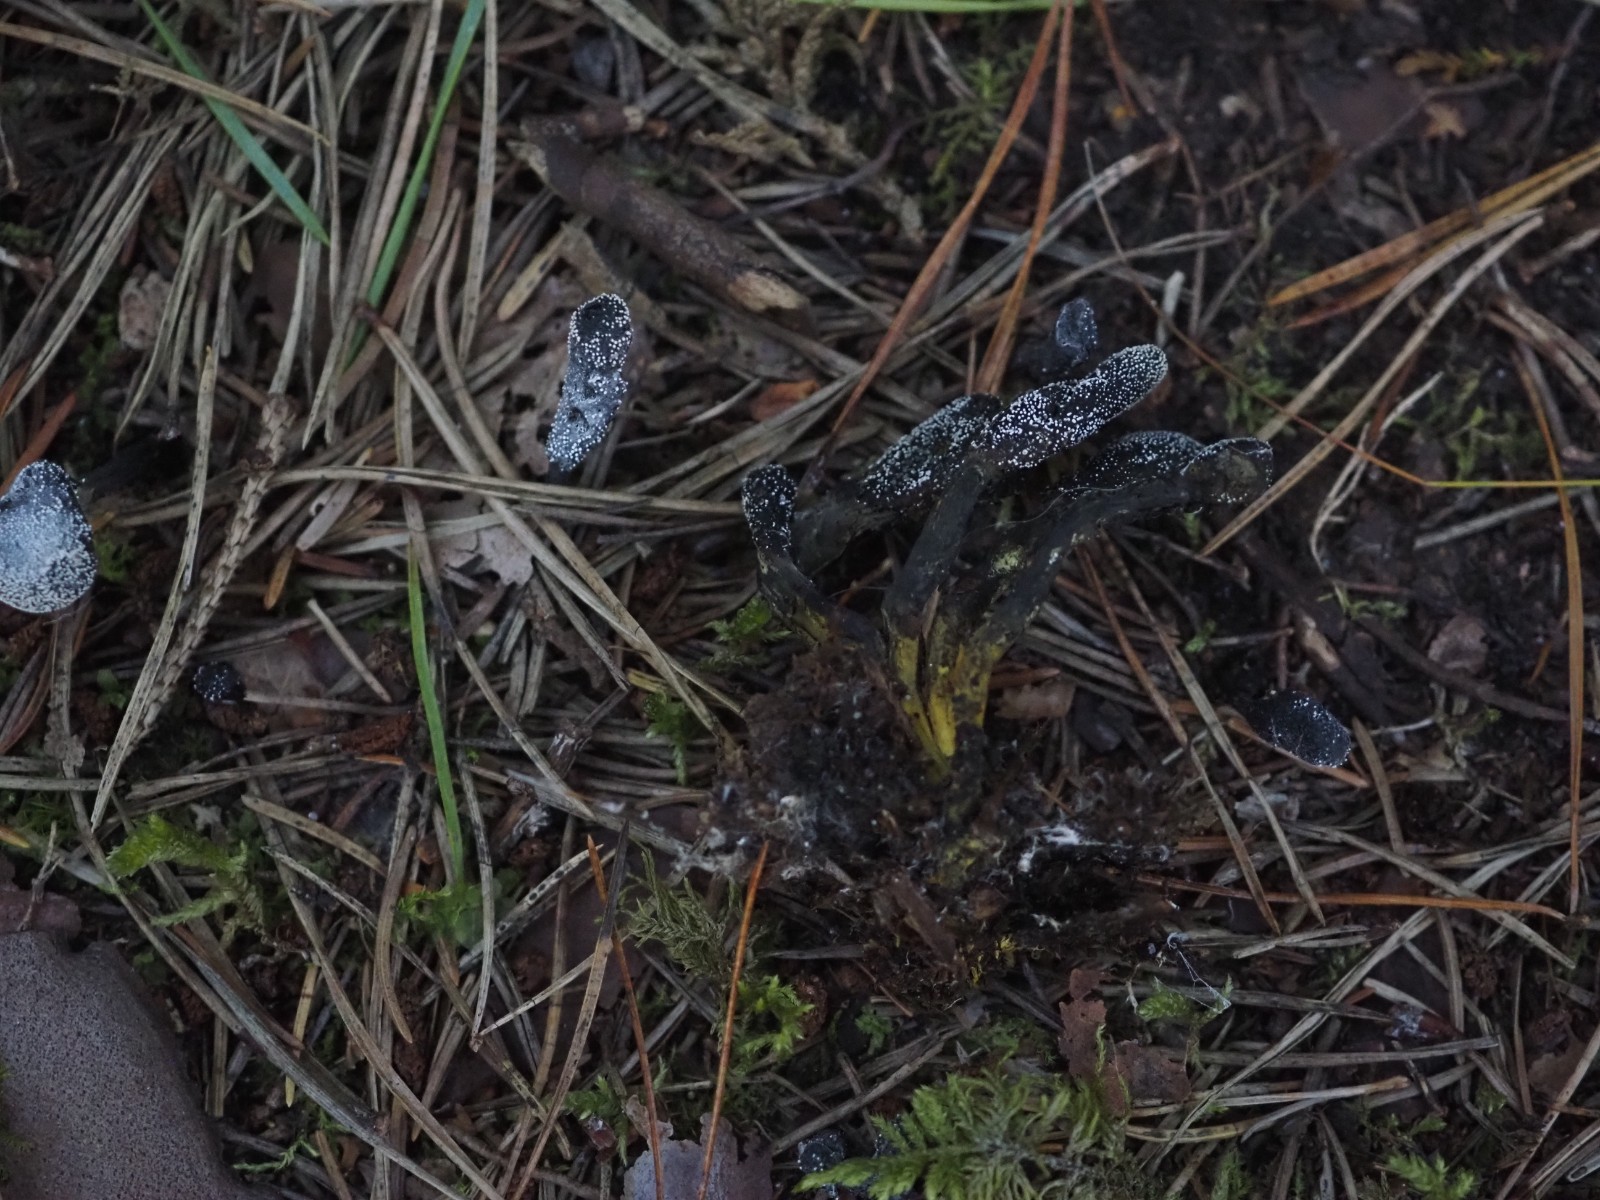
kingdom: Fungi
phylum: Ascomycota
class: Sordariomycetes
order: Hypocreales
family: Ophiocordycipitaceae
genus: Tolypocladium
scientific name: Tolypocladium ophioglossoides
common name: slank snyltekølle
